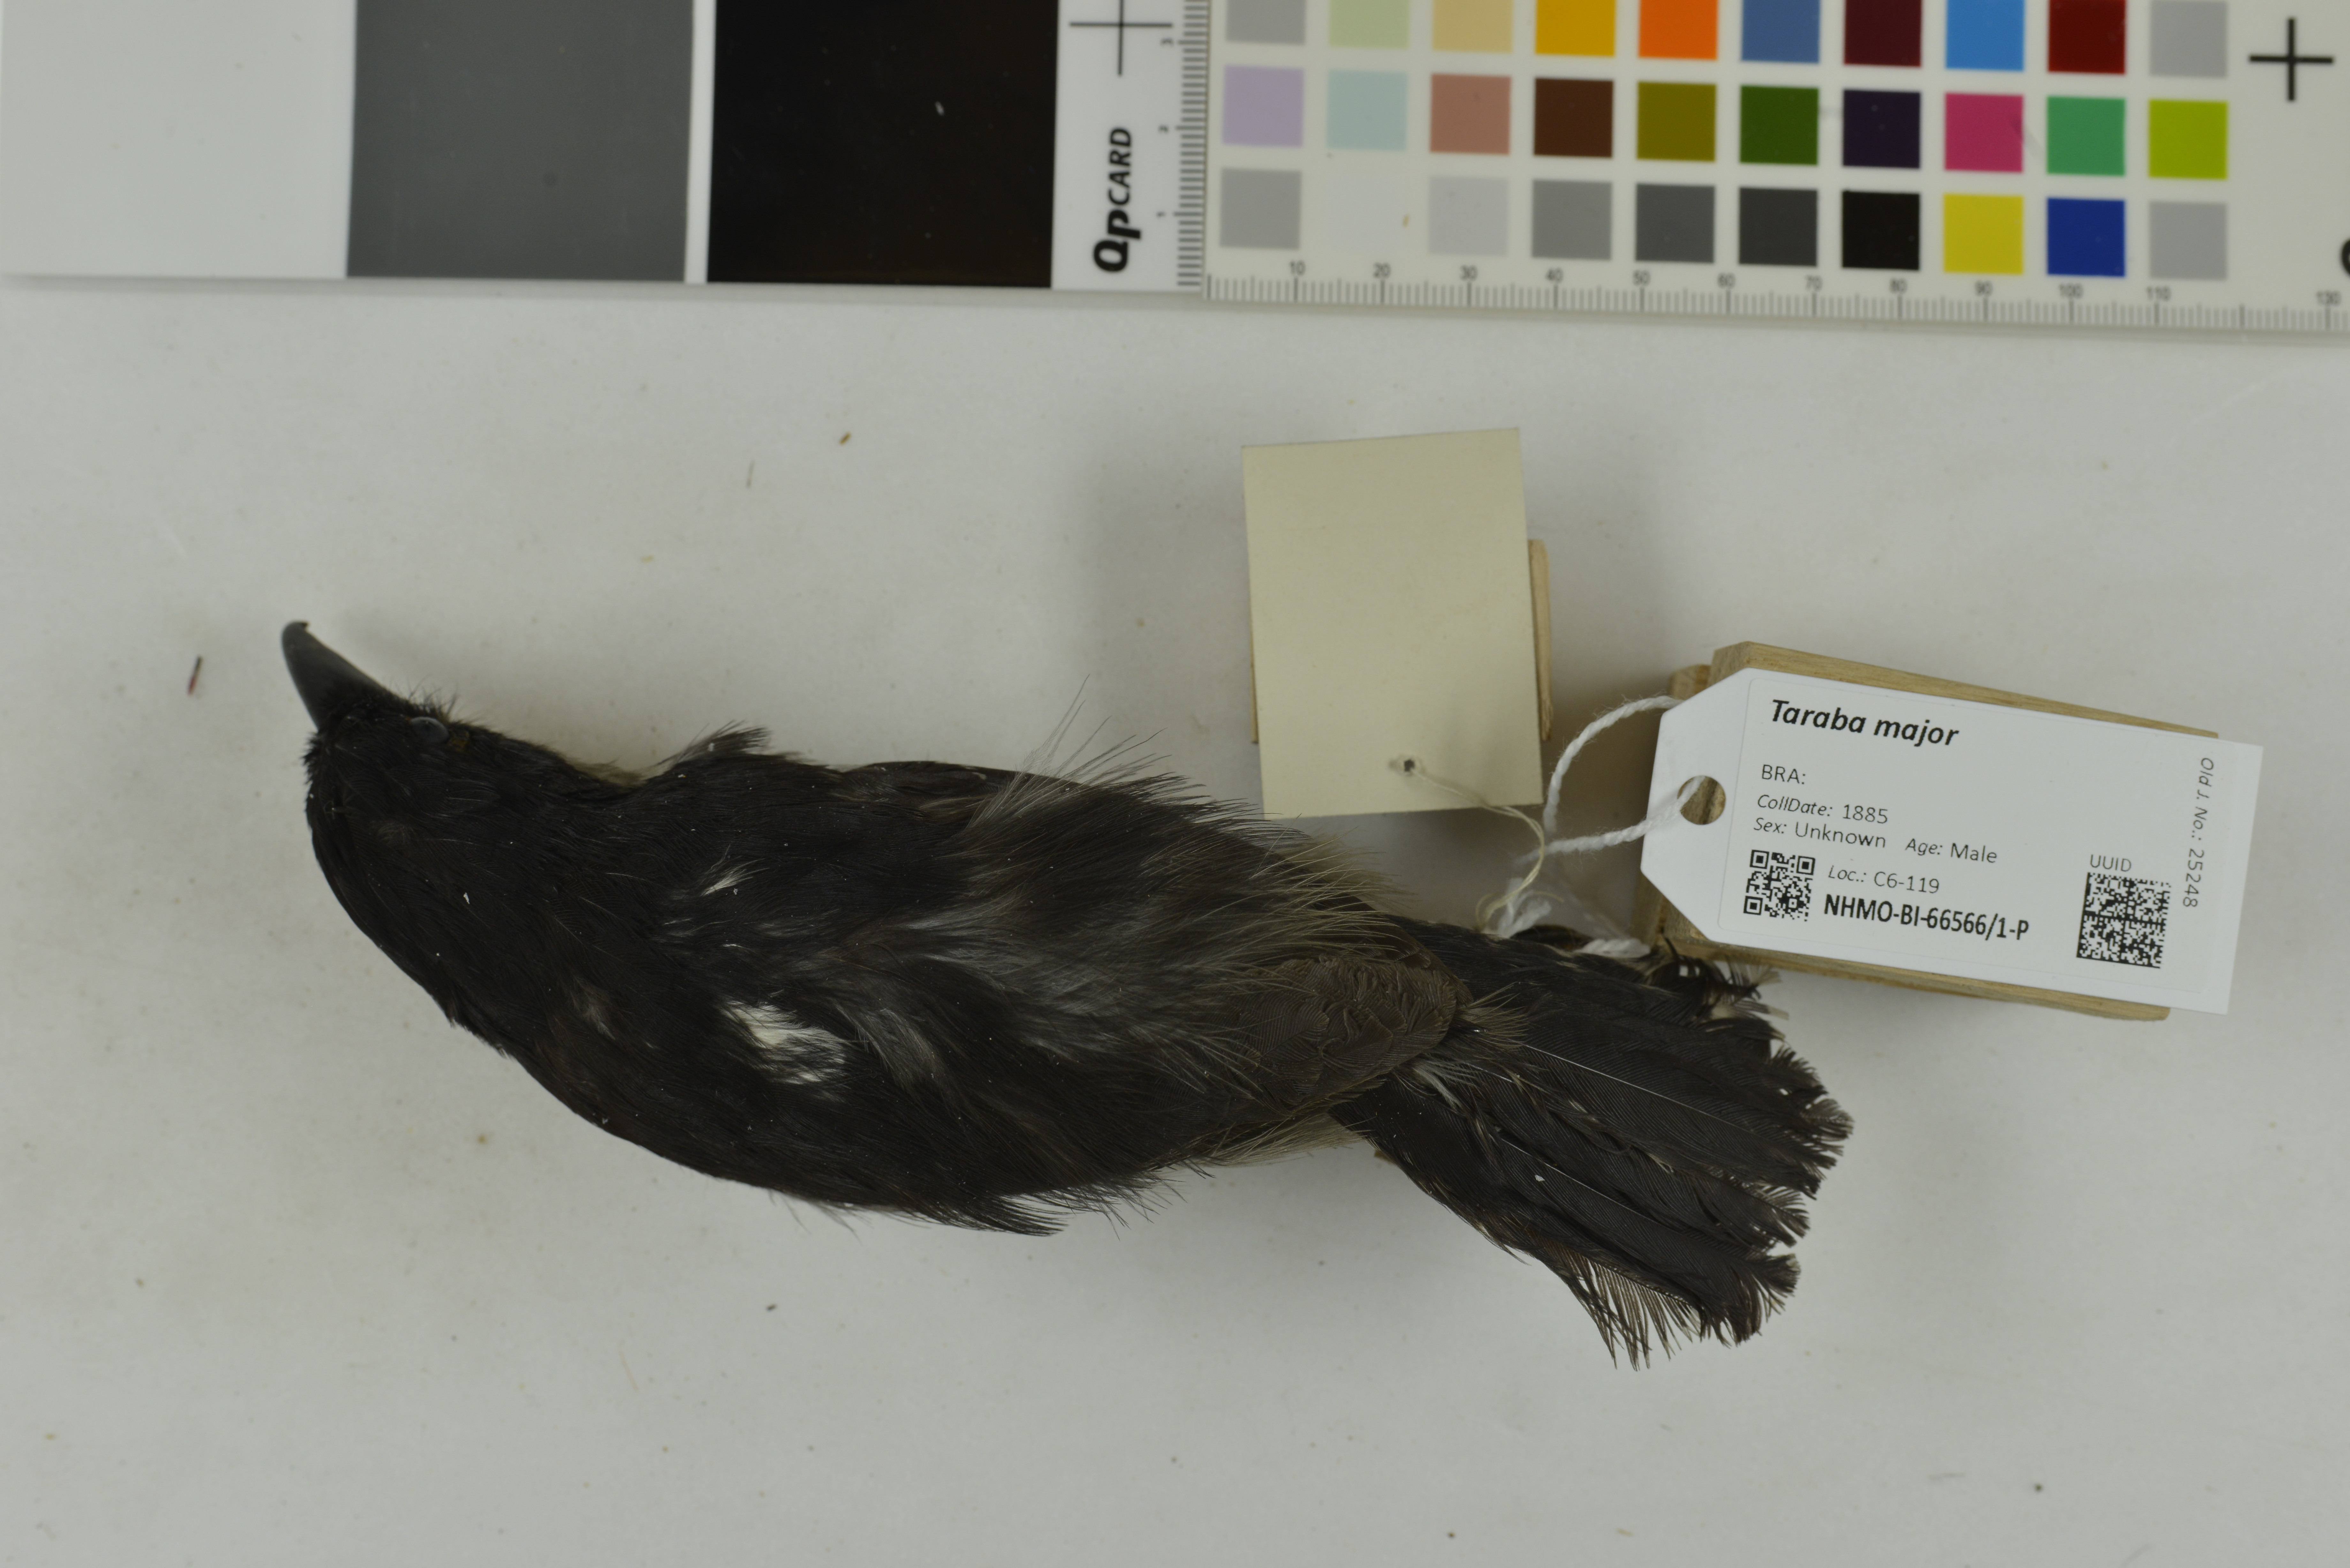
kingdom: Animalia
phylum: Chordata
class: Aves
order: Passeriformes
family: Thamnophilidae
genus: Taraba
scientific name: Taraba major
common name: Great antshrike
